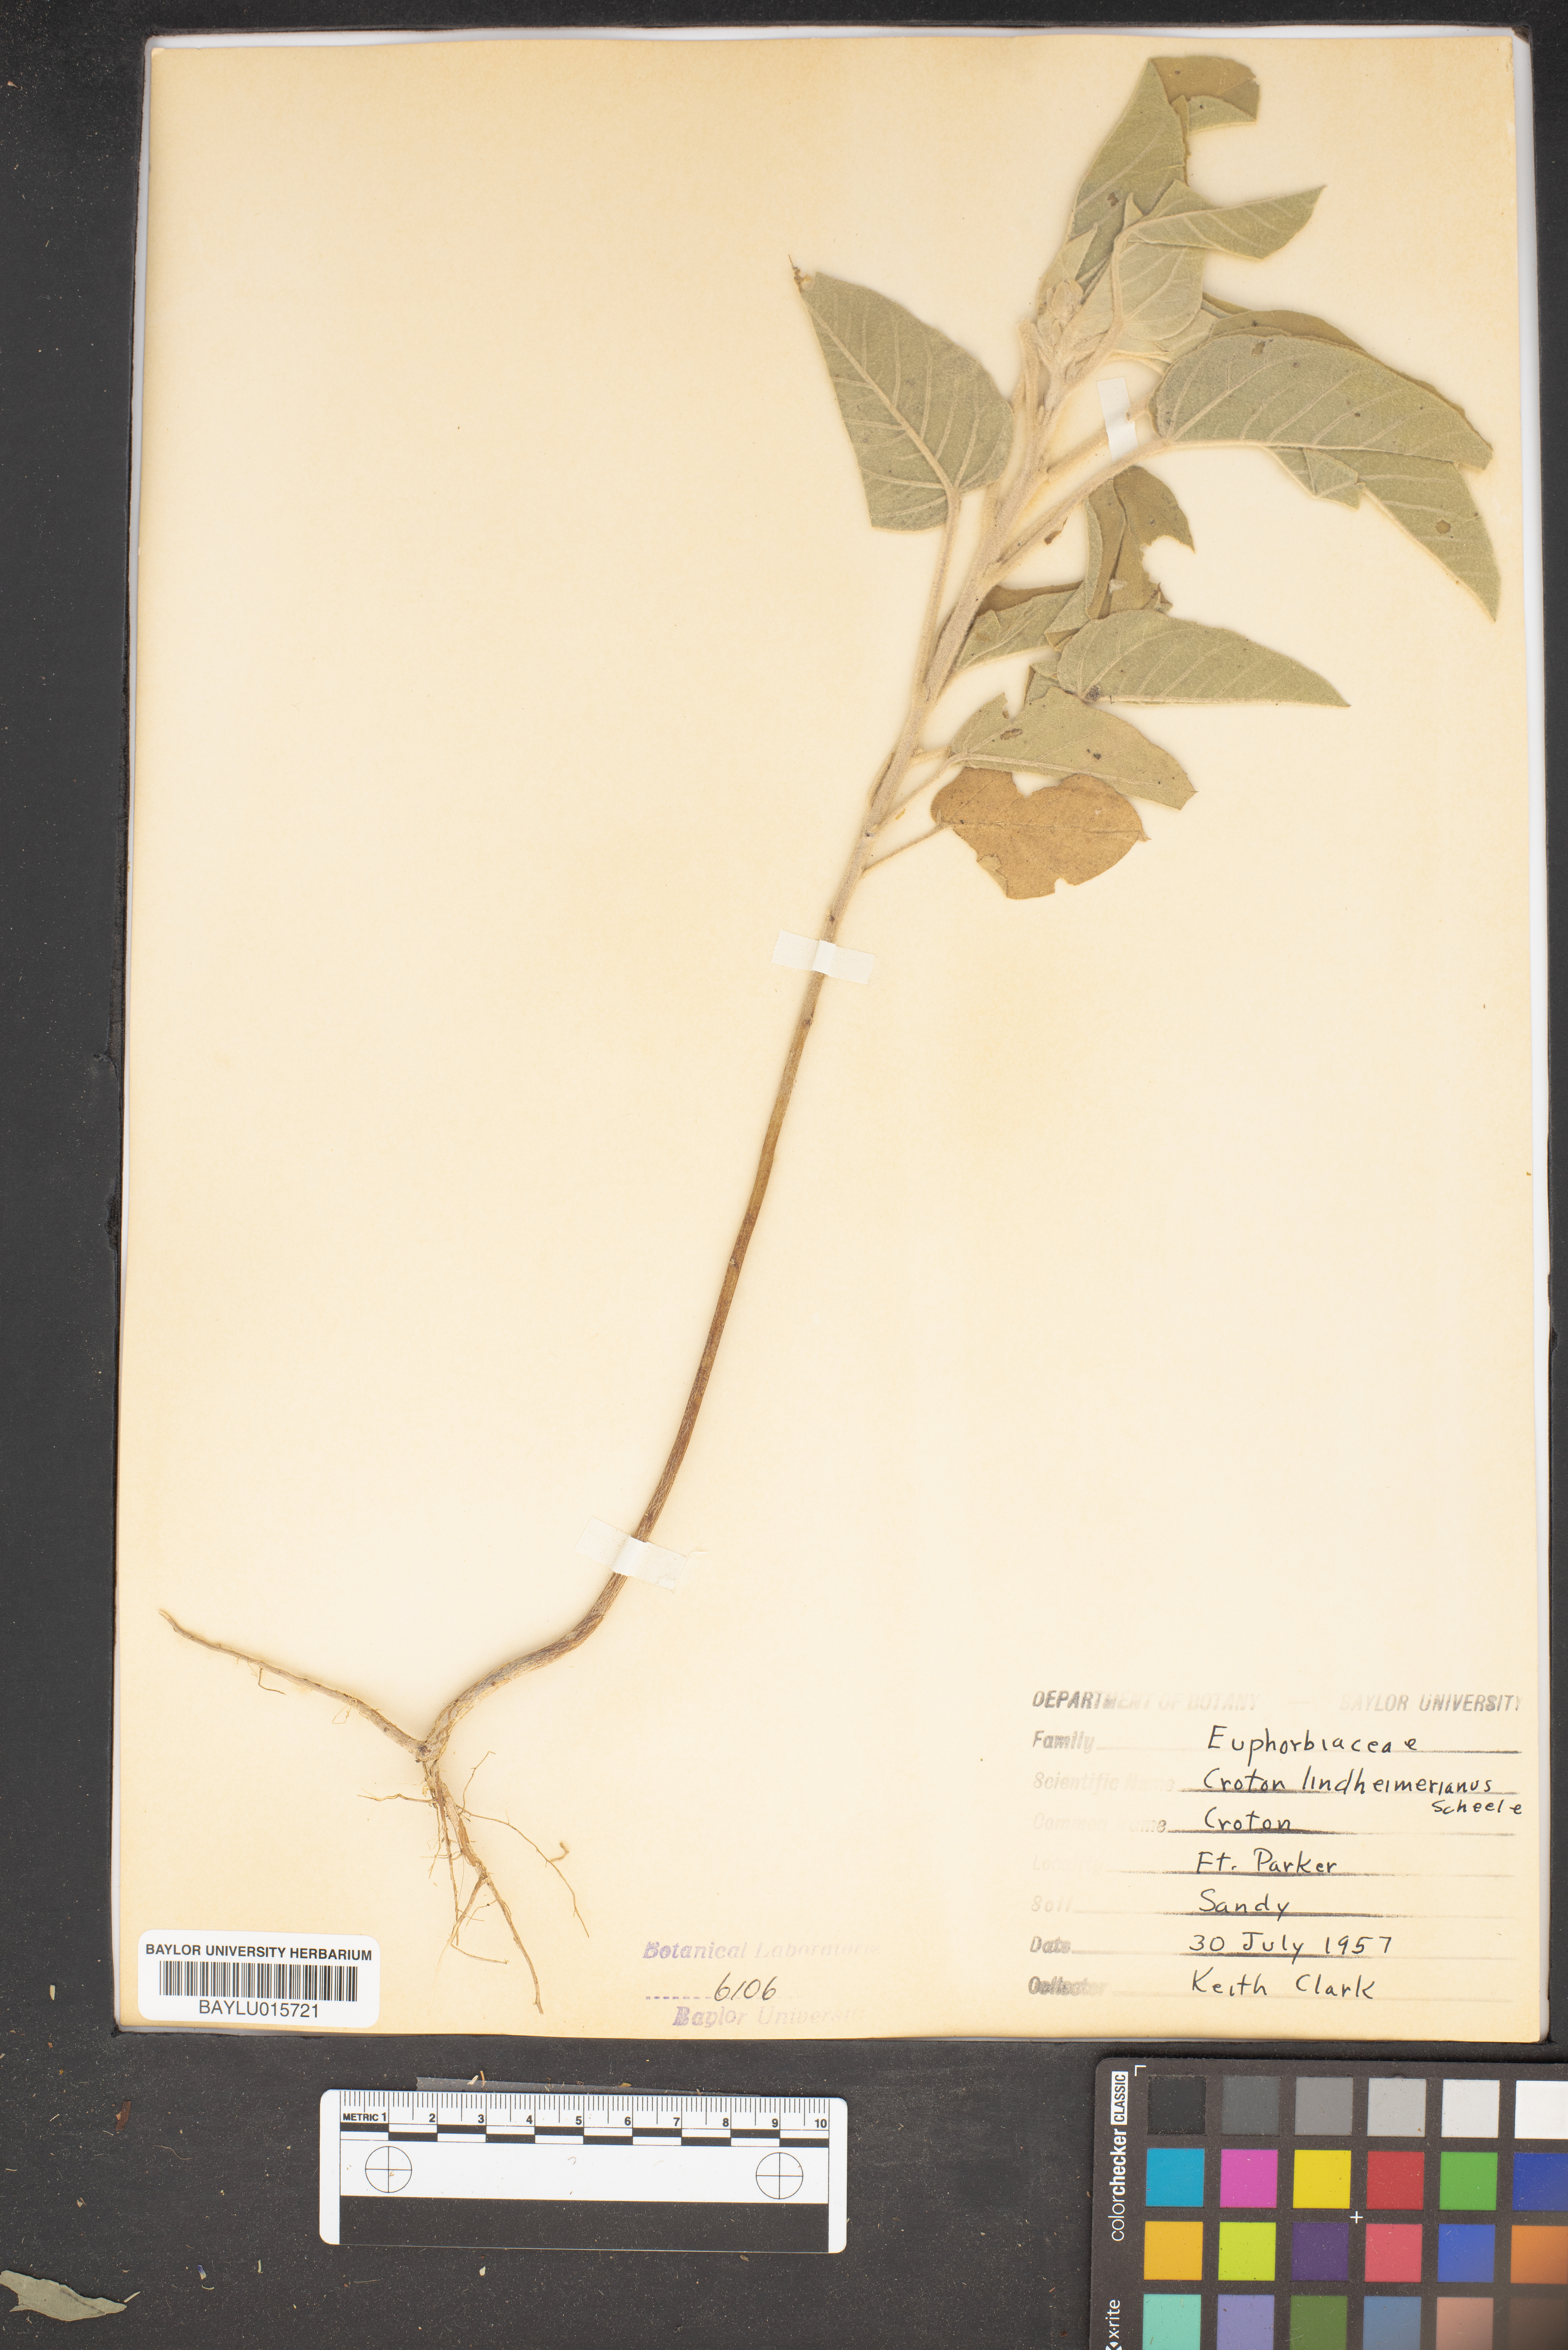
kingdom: Plantae
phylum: Tracheophyta
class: Magnoliopsida
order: Malpighiales
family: Euphorbiaceae
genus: Croton
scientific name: Croton lindheimeri
